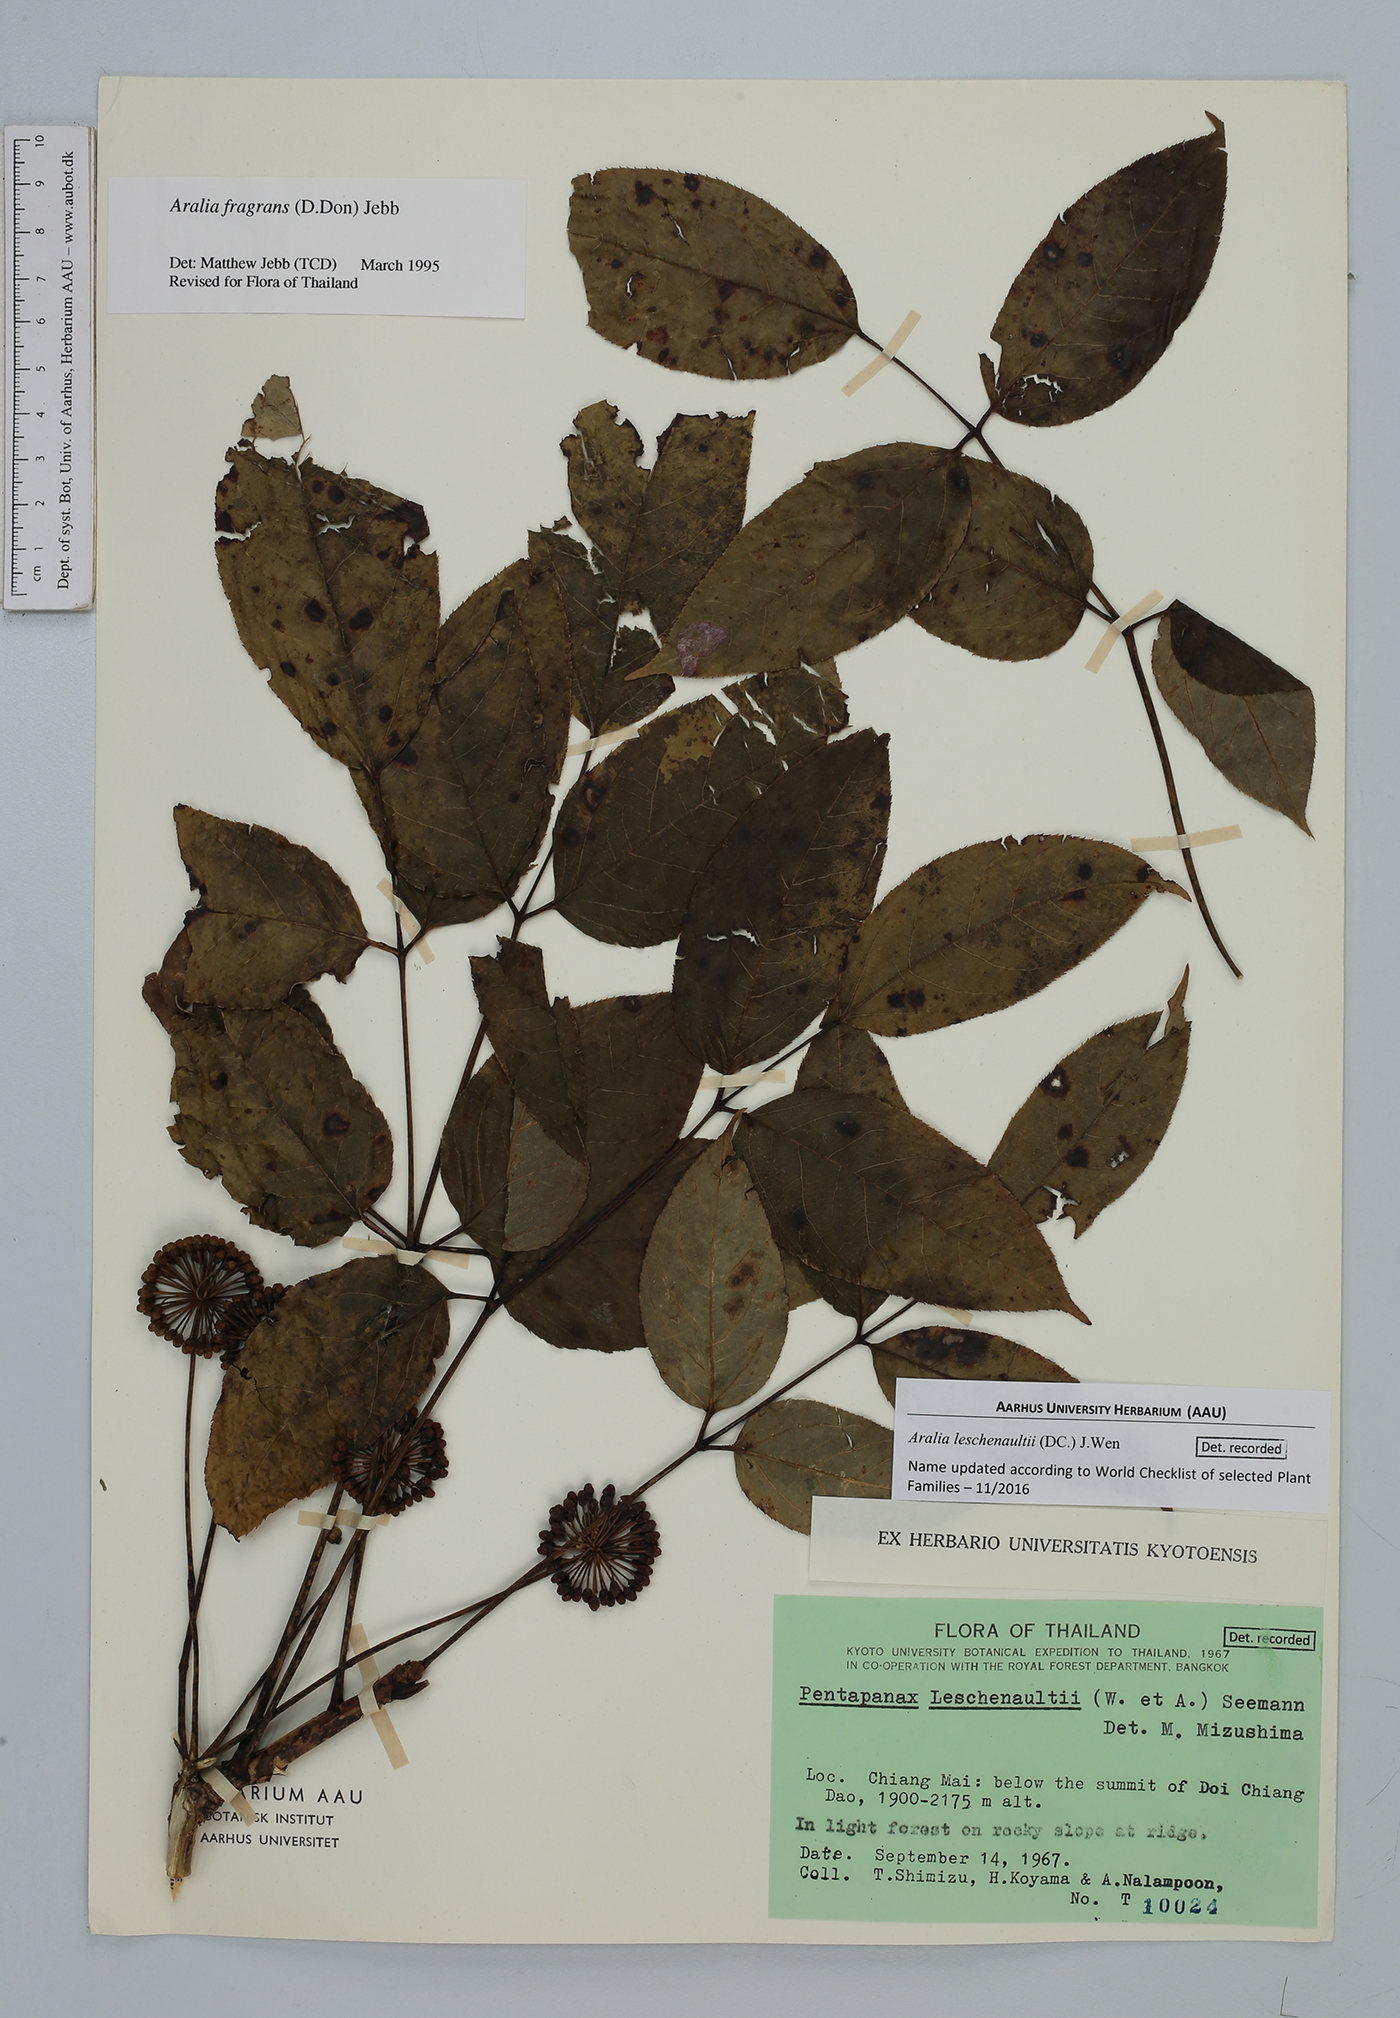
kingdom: Plantae
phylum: Tracheophyta
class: Magnoliopsida
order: Apiales
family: Araliaceae
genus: Aralia
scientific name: Aralia leschenaultii
